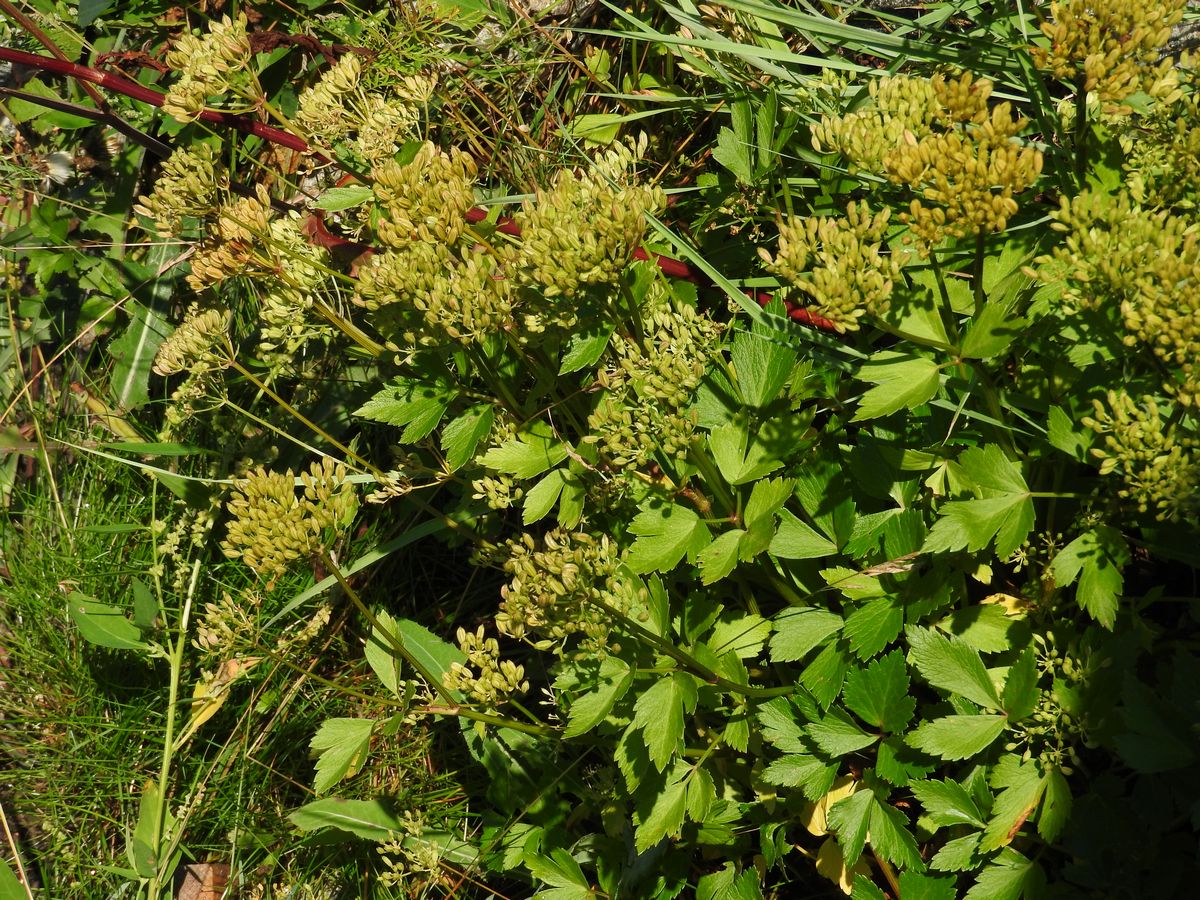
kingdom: Plantae
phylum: Tracheophyta
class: Magnoliopsida
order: Apiales
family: Apiaceae
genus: Ligusticum
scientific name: Ligusticum scothicum
